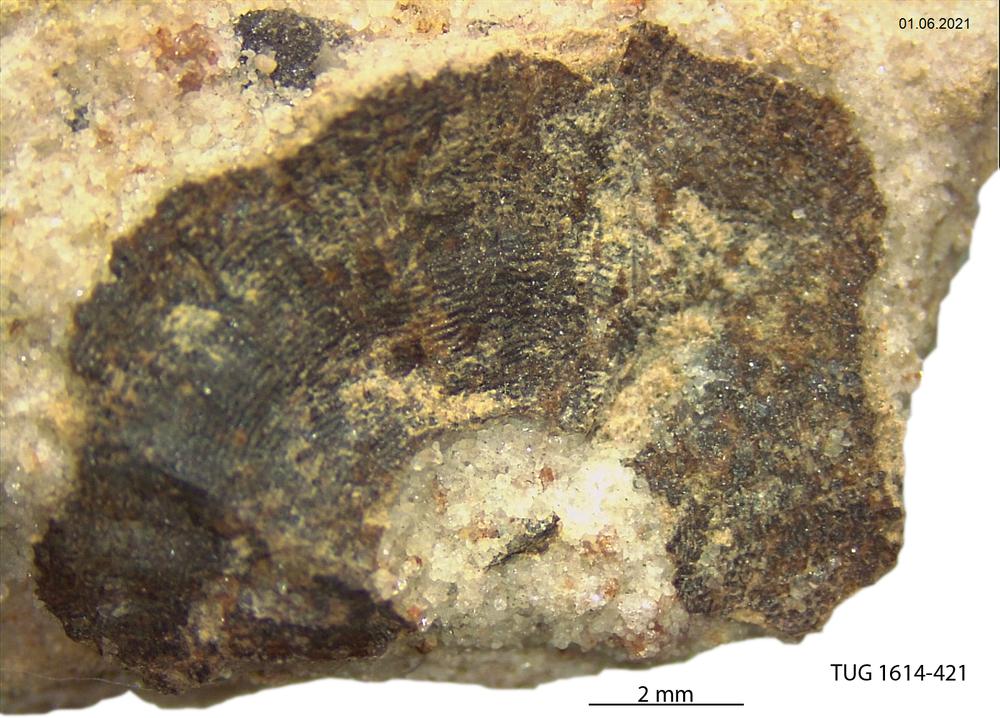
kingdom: Animalia
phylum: Mollusca
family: Scenellidae
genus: Scenella
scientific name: Scenella
